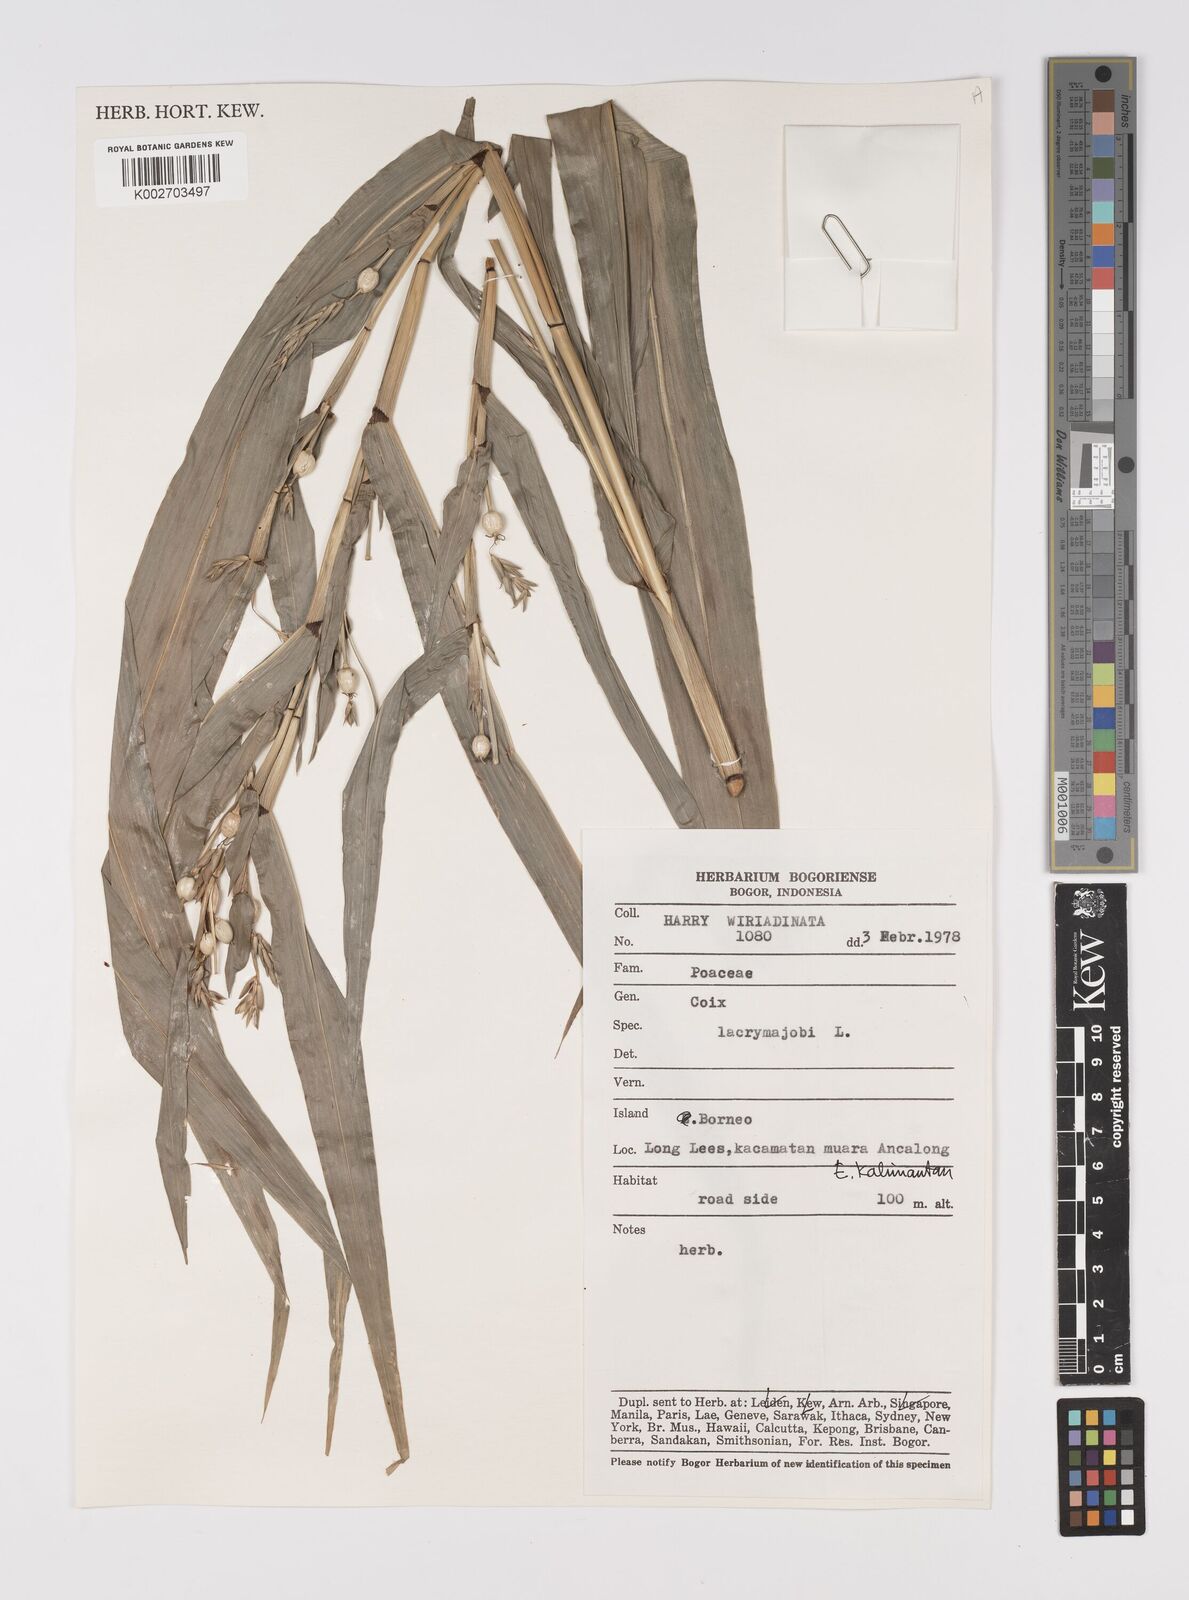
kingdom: Plantae
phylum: Tracheophyta
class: Liliopsida
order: Poales
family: Poaceae
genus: Coix
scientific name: Coix lacryma-jobi
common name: Job's tears
